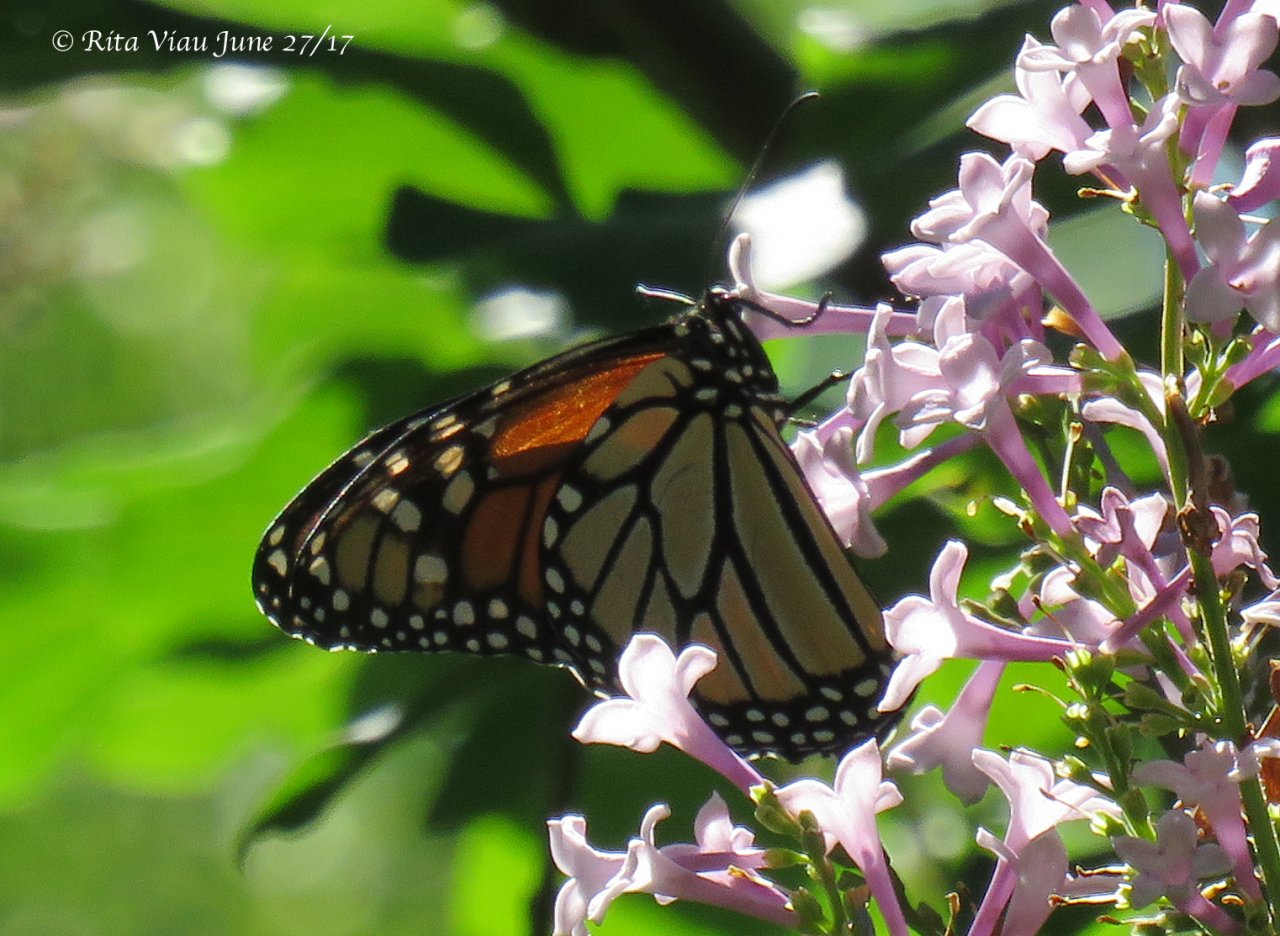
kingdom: Animalia
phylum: Arthropoda
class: Insecta
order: Lepidoptera
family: Nymphalidae
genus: Danaus
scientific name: Danaus plexippus
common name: Monarch
